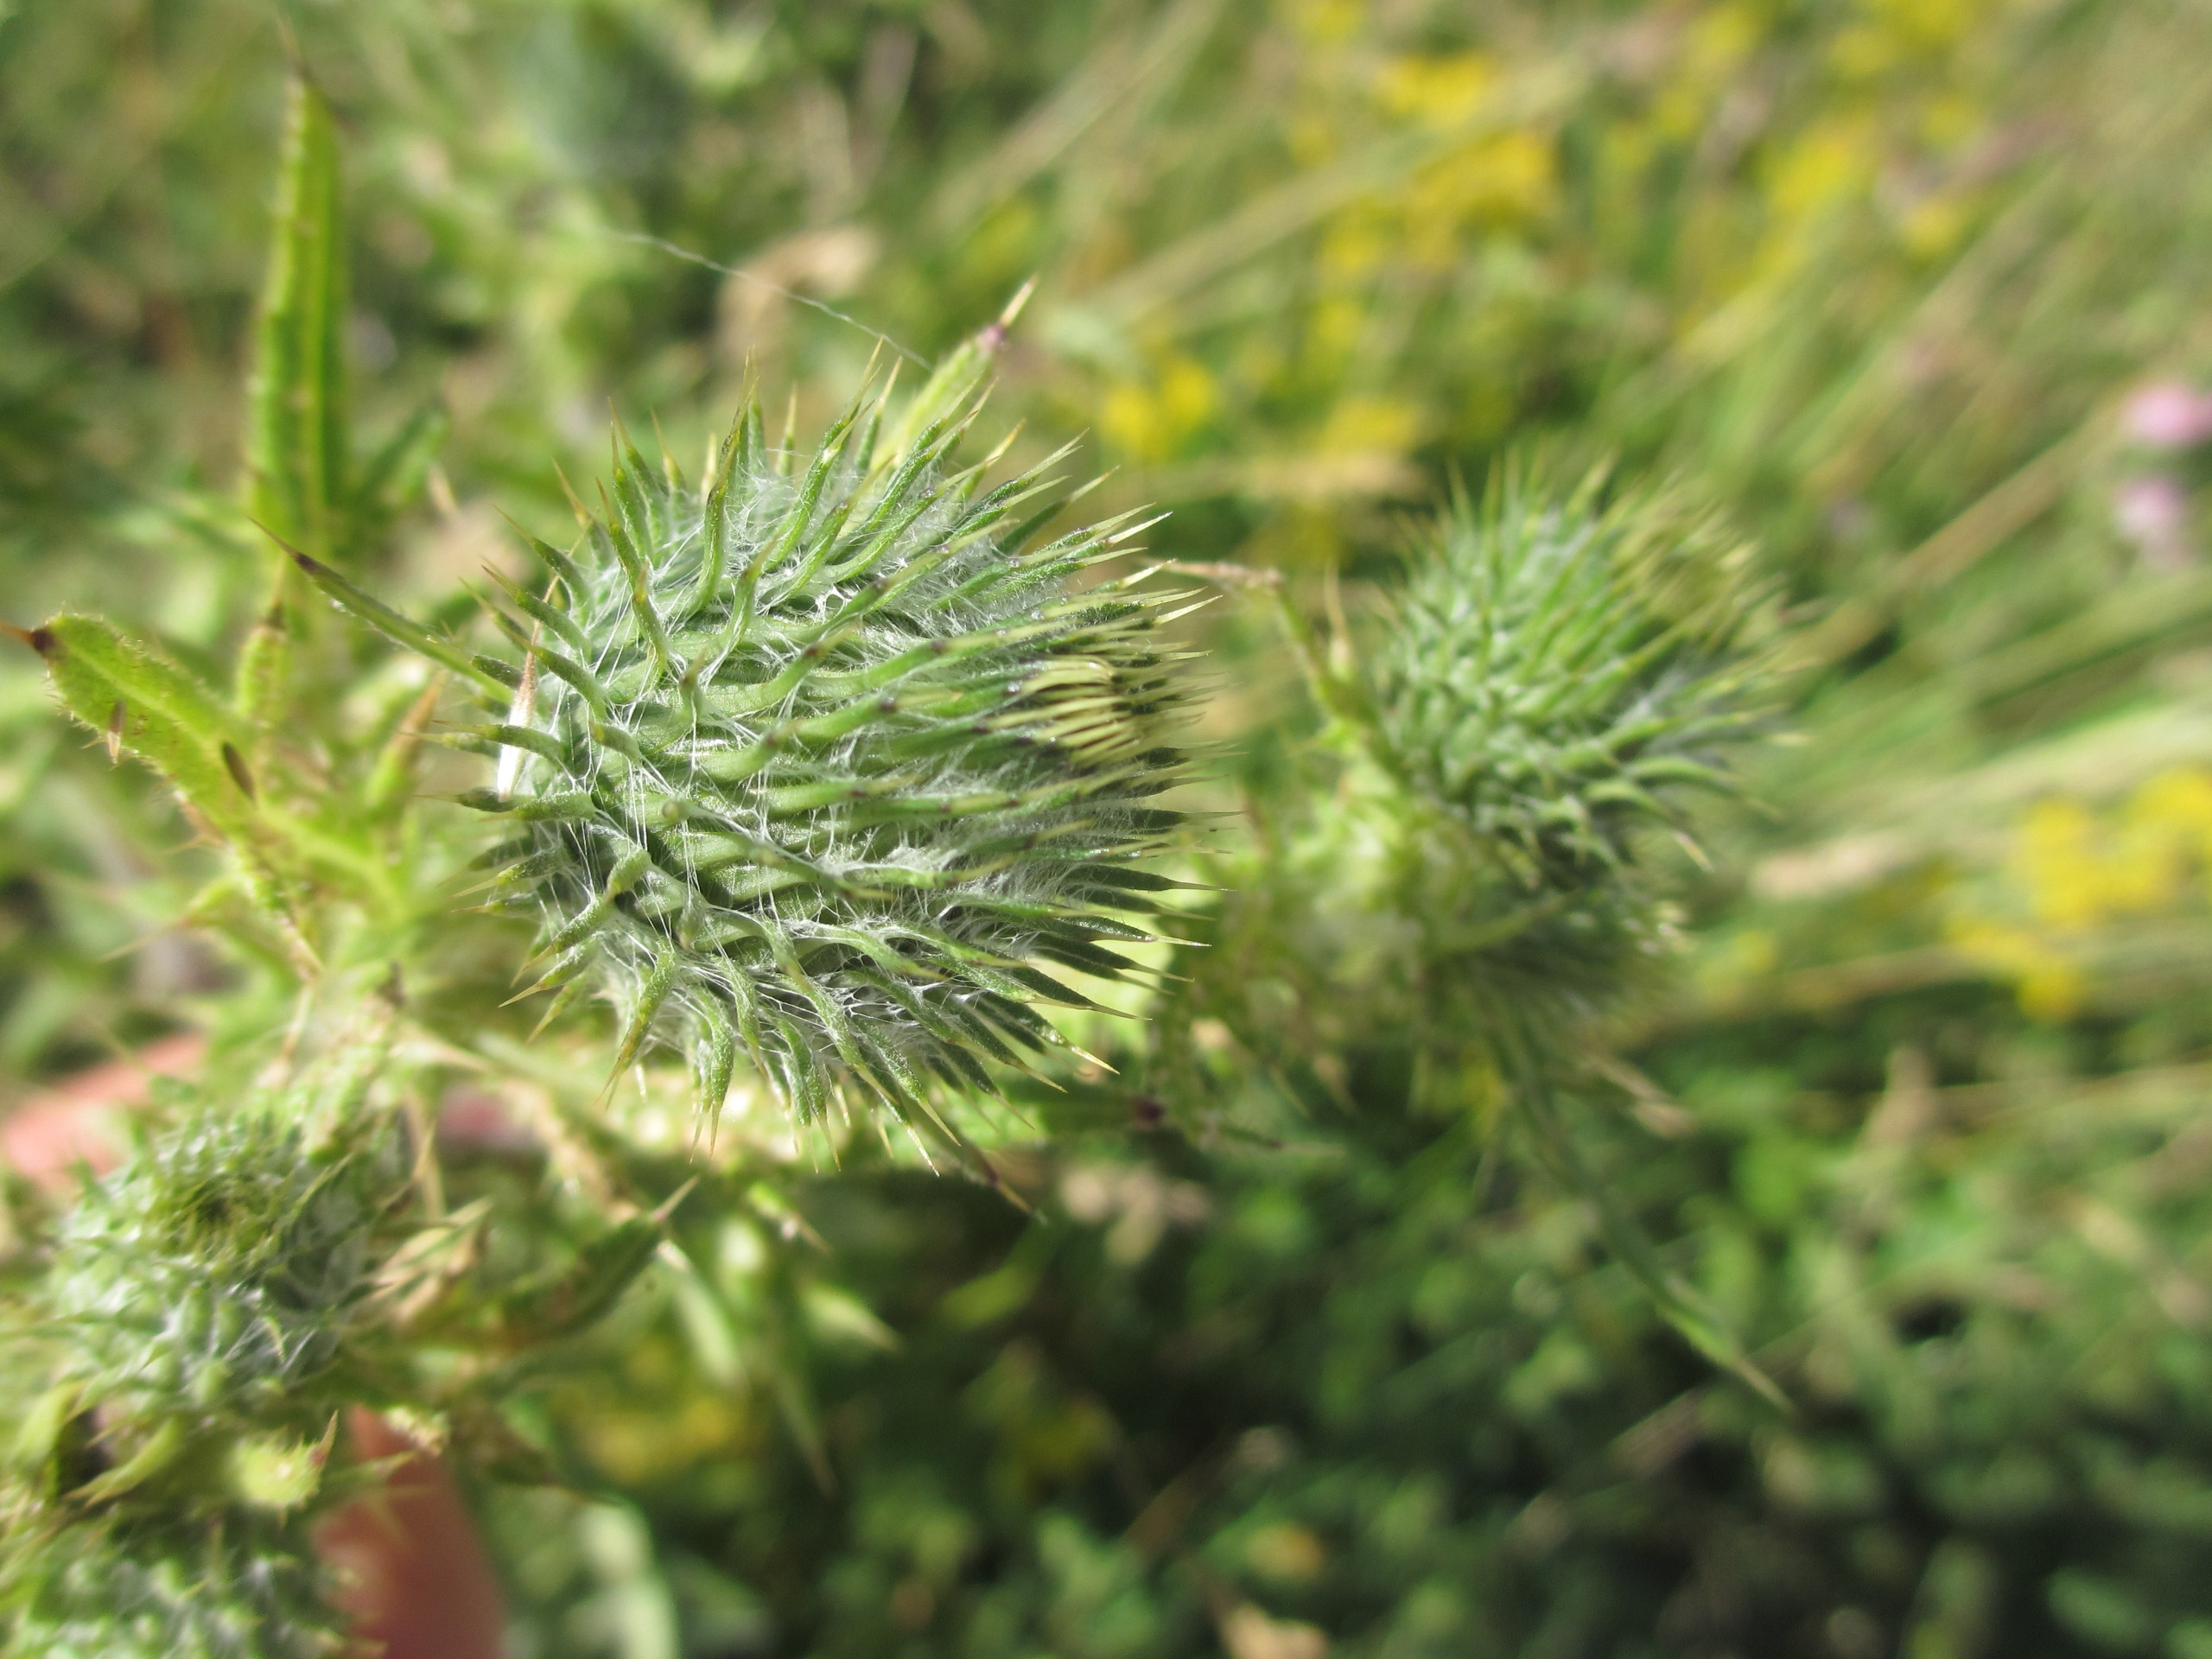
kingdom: Plantae
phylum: Tracheophyta
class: Magnoliopsida
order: Asterales
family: Asteraceae
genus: Cirsium
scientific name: Cirsium vulgare
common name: Horse-tidsel
